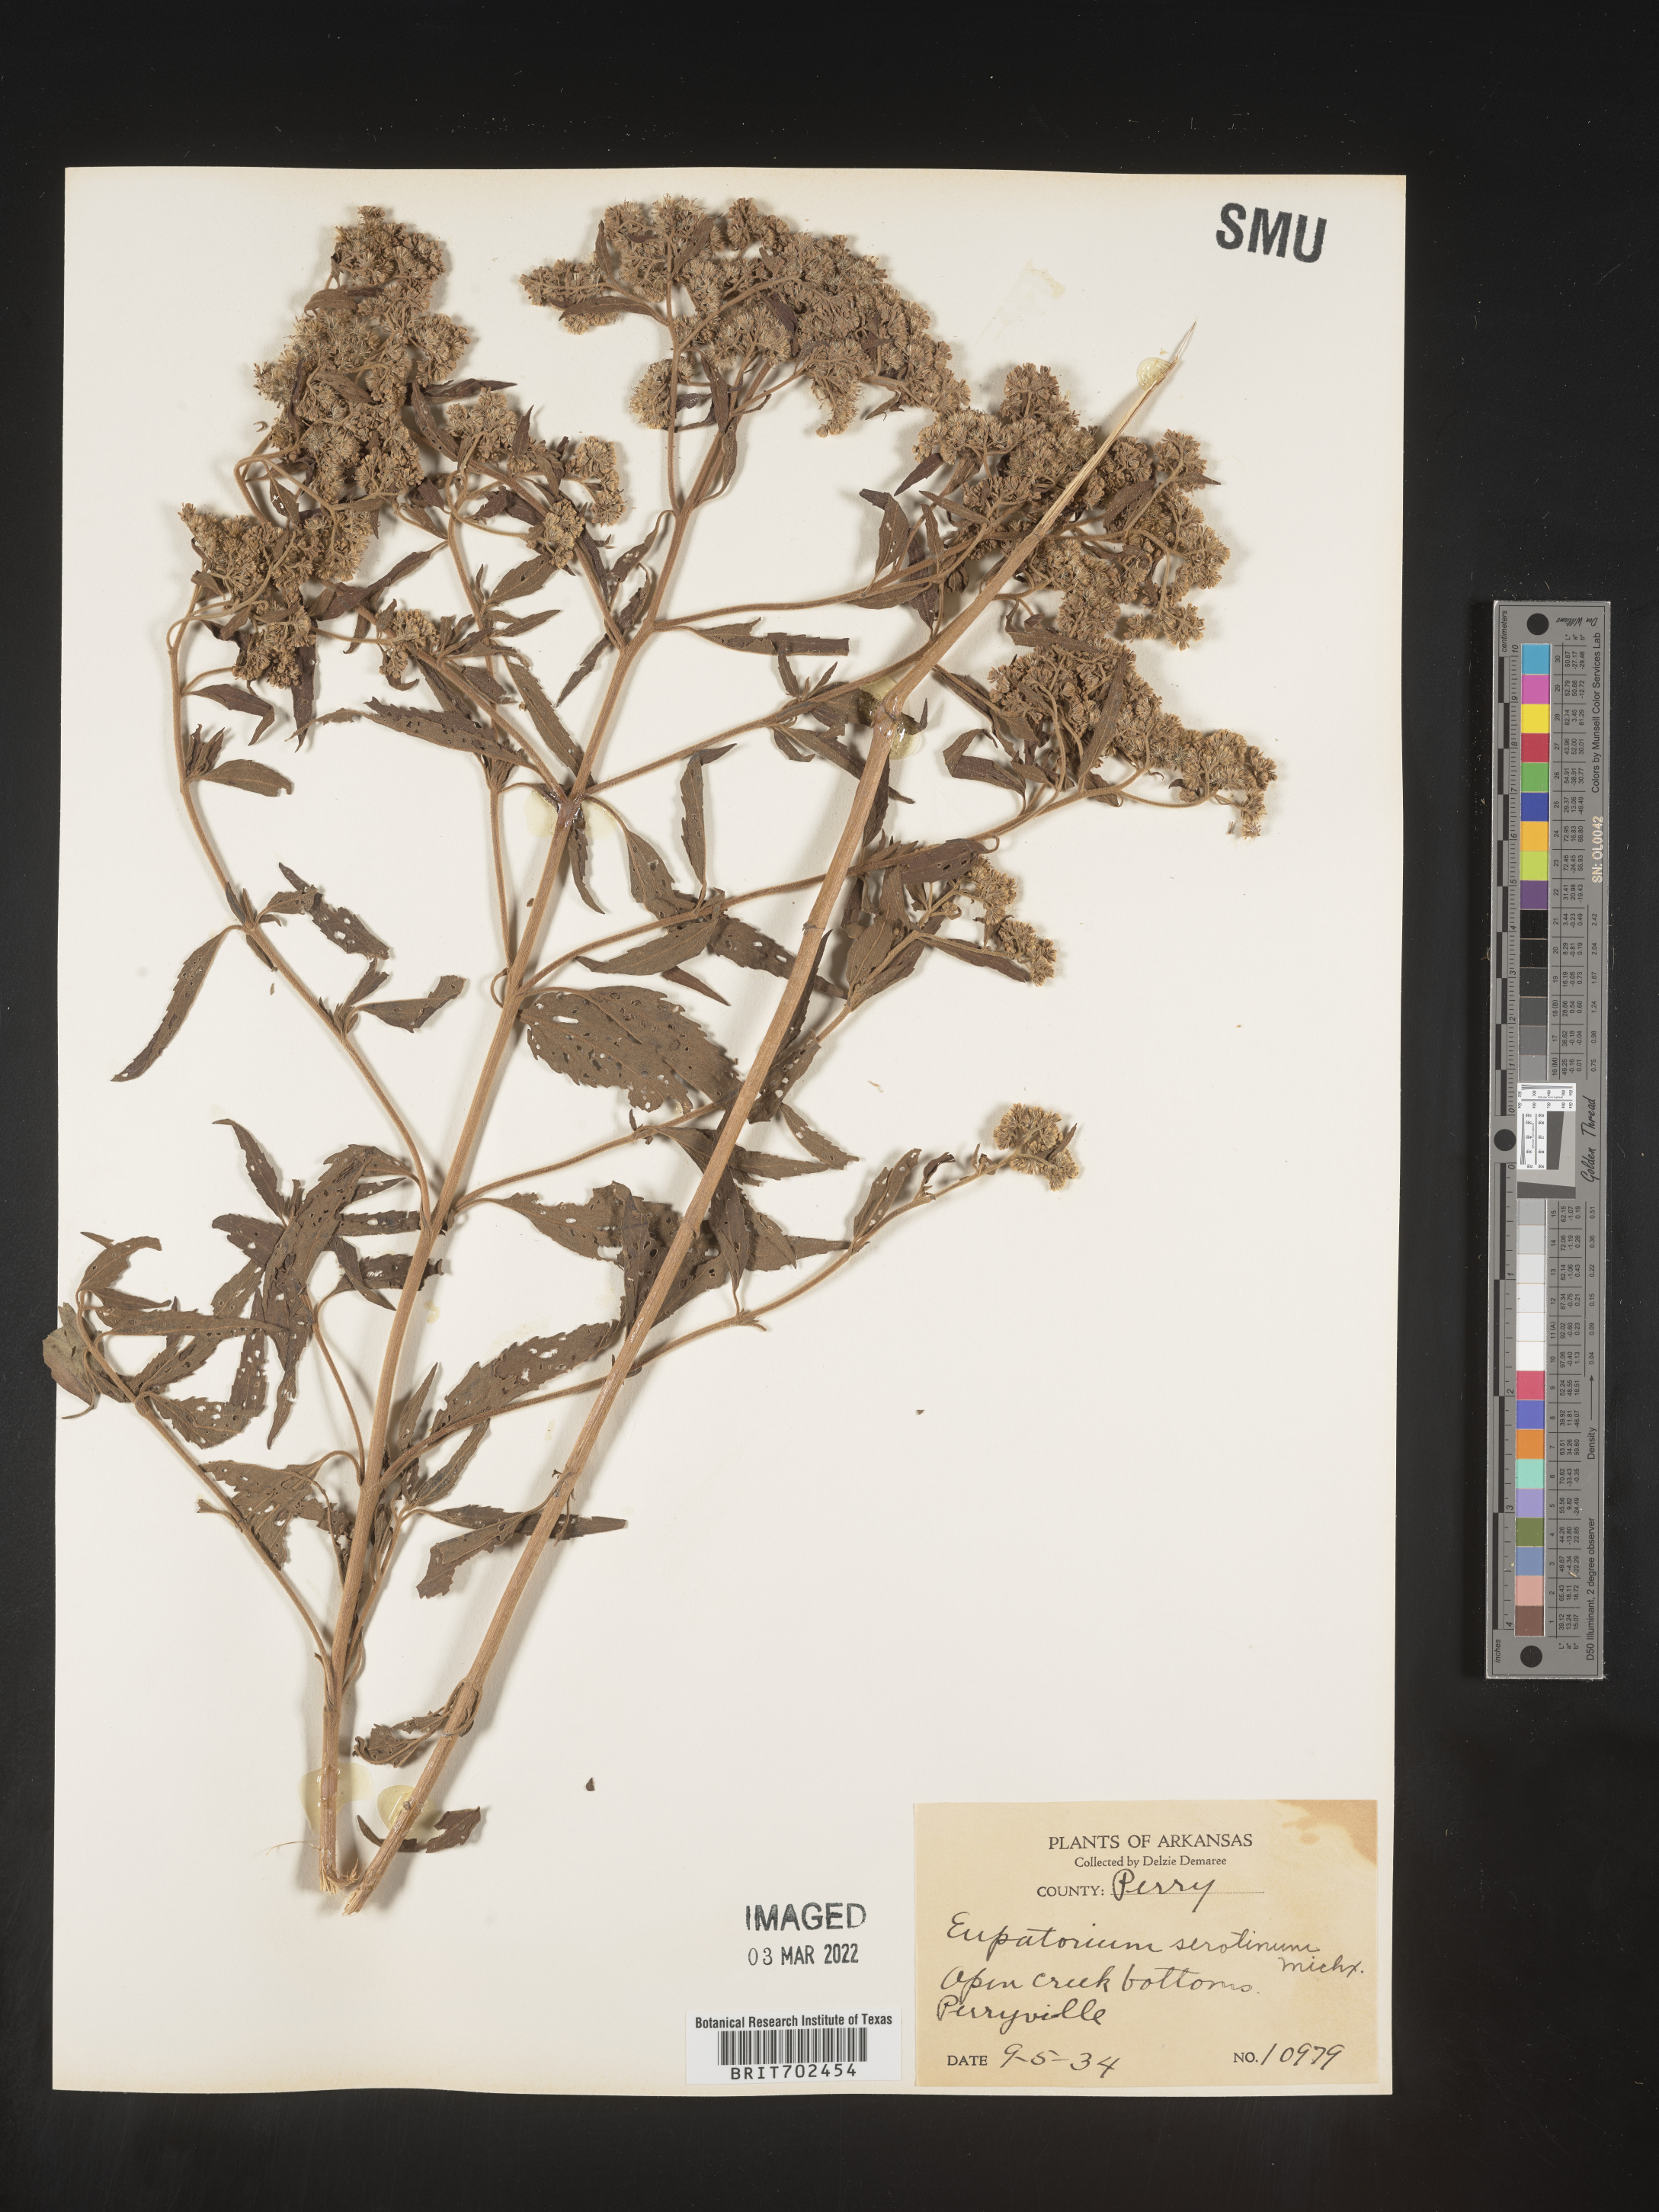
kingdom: Plantae
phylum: Tracheophyta
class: Magnoliopsida
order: Asterales
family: Asteraceae
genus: Eupatorium
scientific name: Eupatorium serotinum
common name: Late boneset
